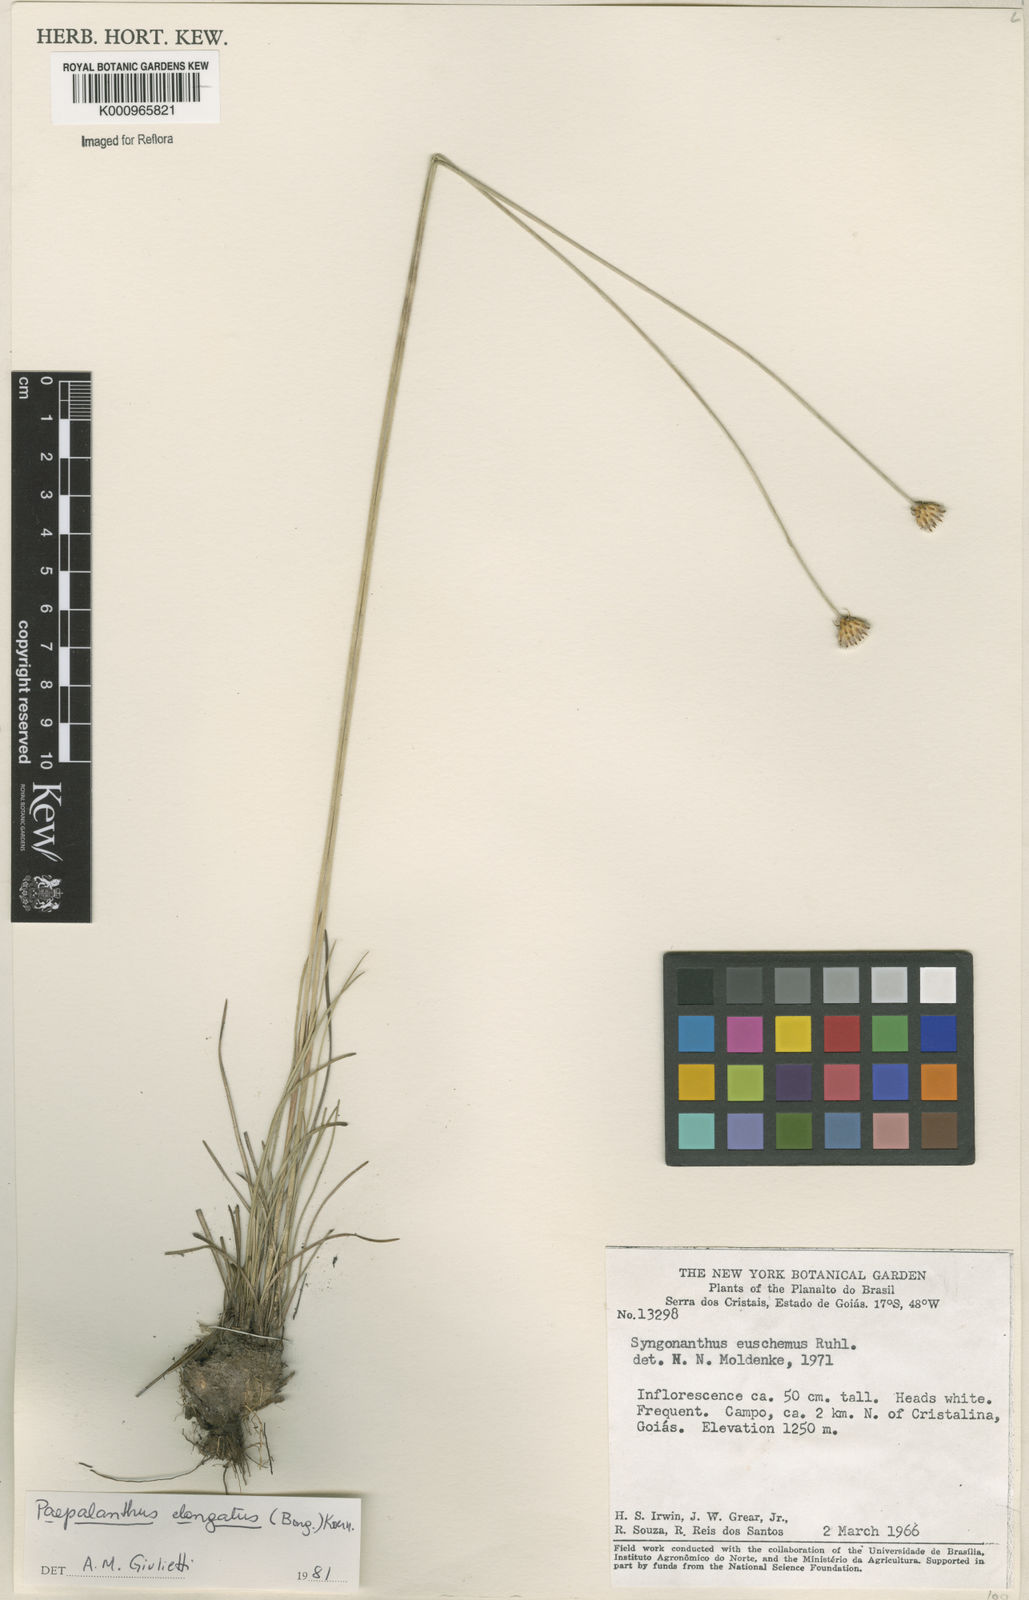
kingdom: Plantae
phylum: Tracheophyta
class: Liliopsida
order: Poales
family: Eriocaulaceae
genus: Paepalanthus
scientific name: Paepalanthus
